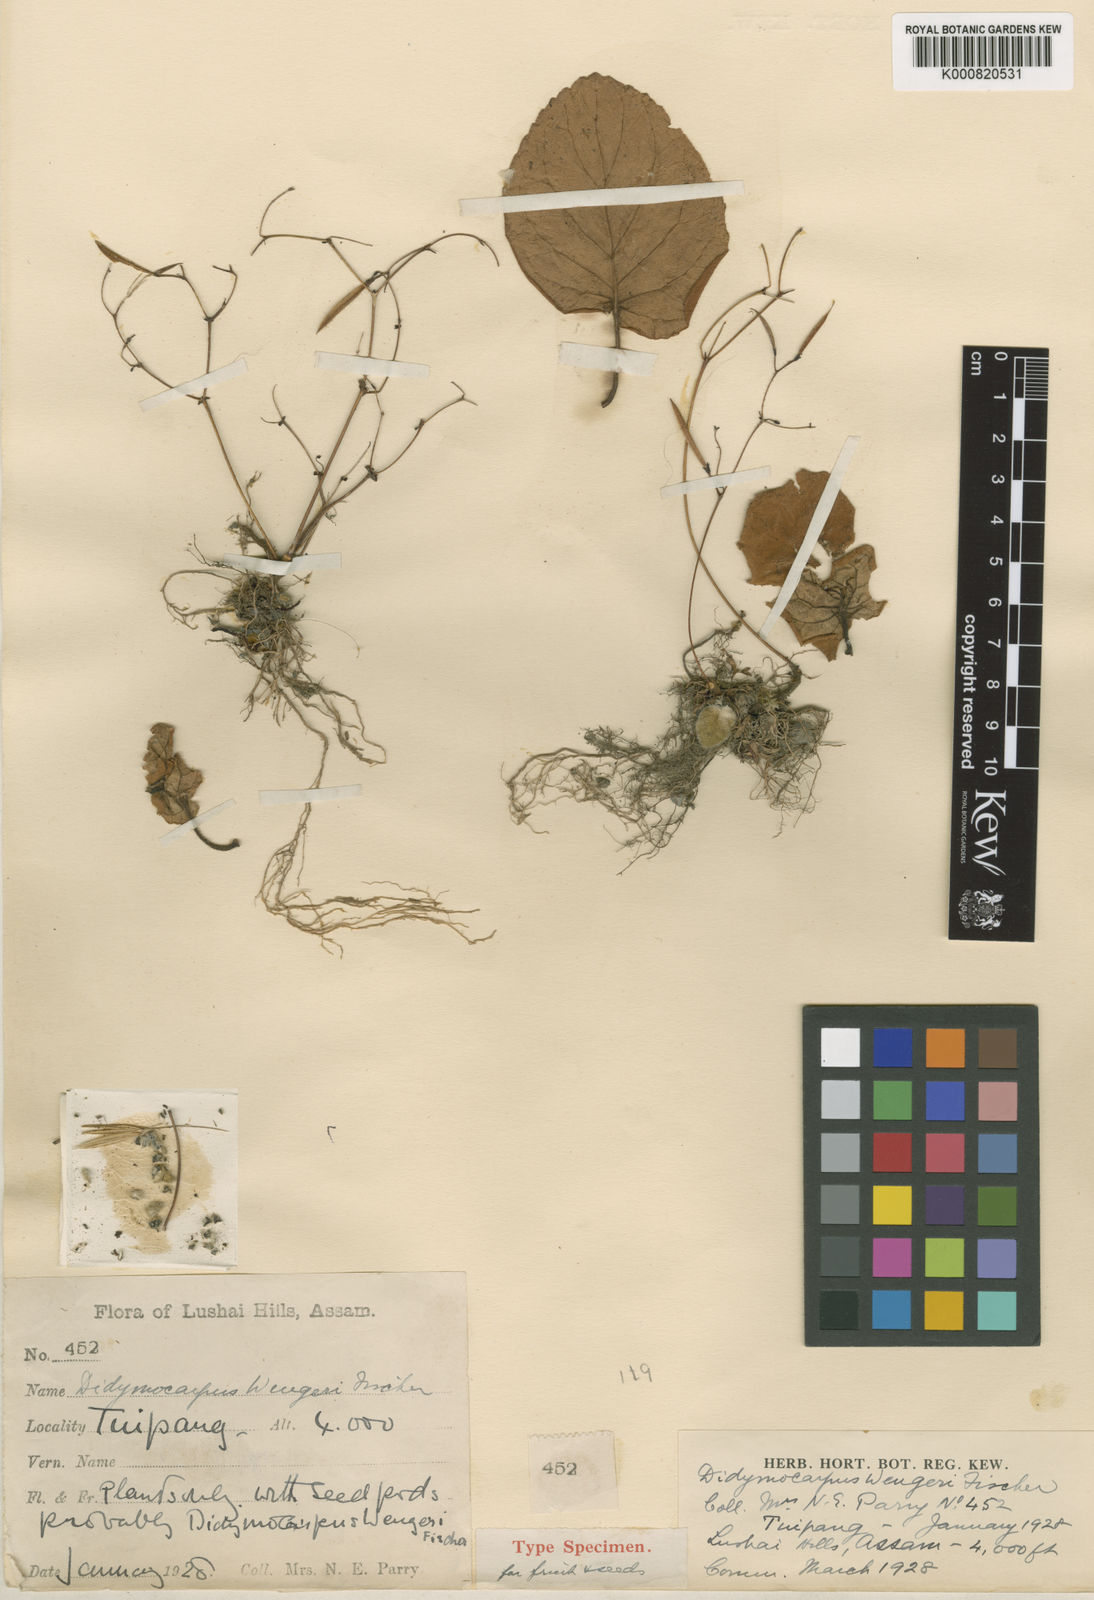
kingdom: Plantae
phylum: Tracheophyta
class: Magnoliopsida
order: Lamiales
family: Gesneriaceae
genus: Didymocarpus
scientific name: Didymocarpus wengeri
